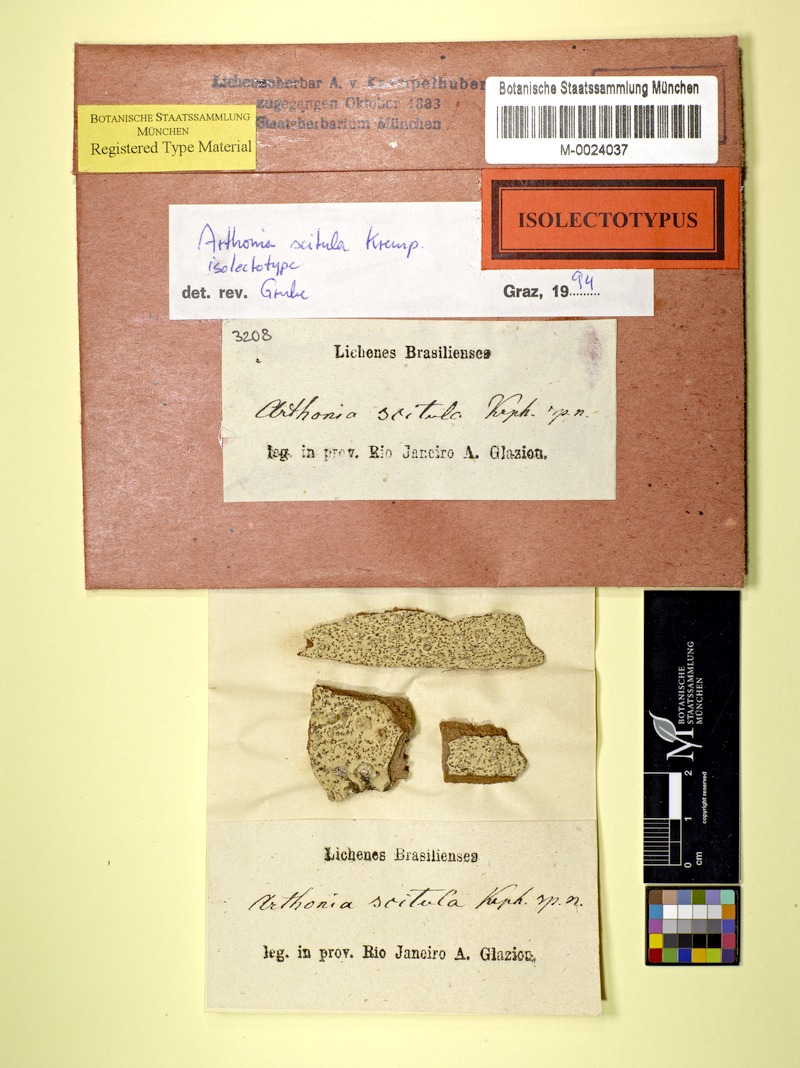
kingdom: Fungi
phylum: Ascomycota
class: Arthoniomycetes
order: Arthoniales
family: Arthoniaceae
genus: Arthonia
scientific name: Arthonia
